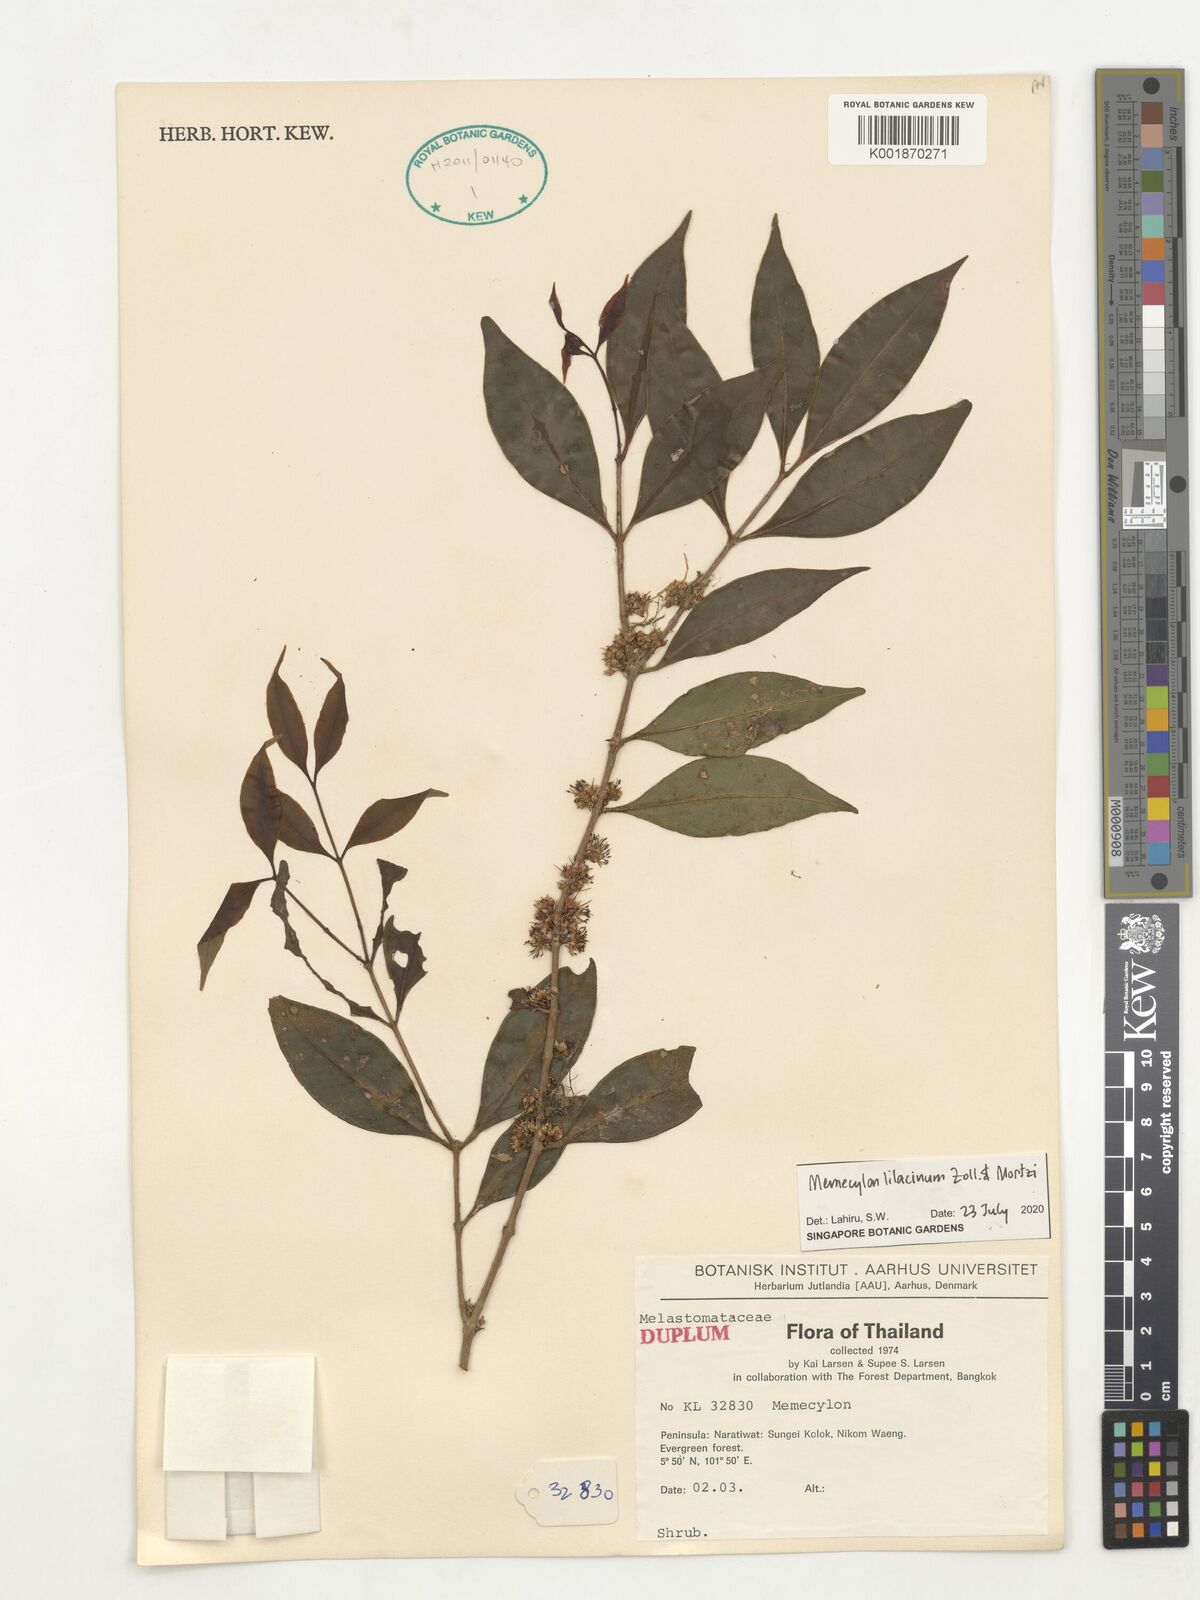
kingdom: Plantae
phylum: Tracheophyta
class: Magnoliopsida
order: Myrtales
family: Melastomataceae
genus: Memecylon
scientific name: Memecylon lilacinum
